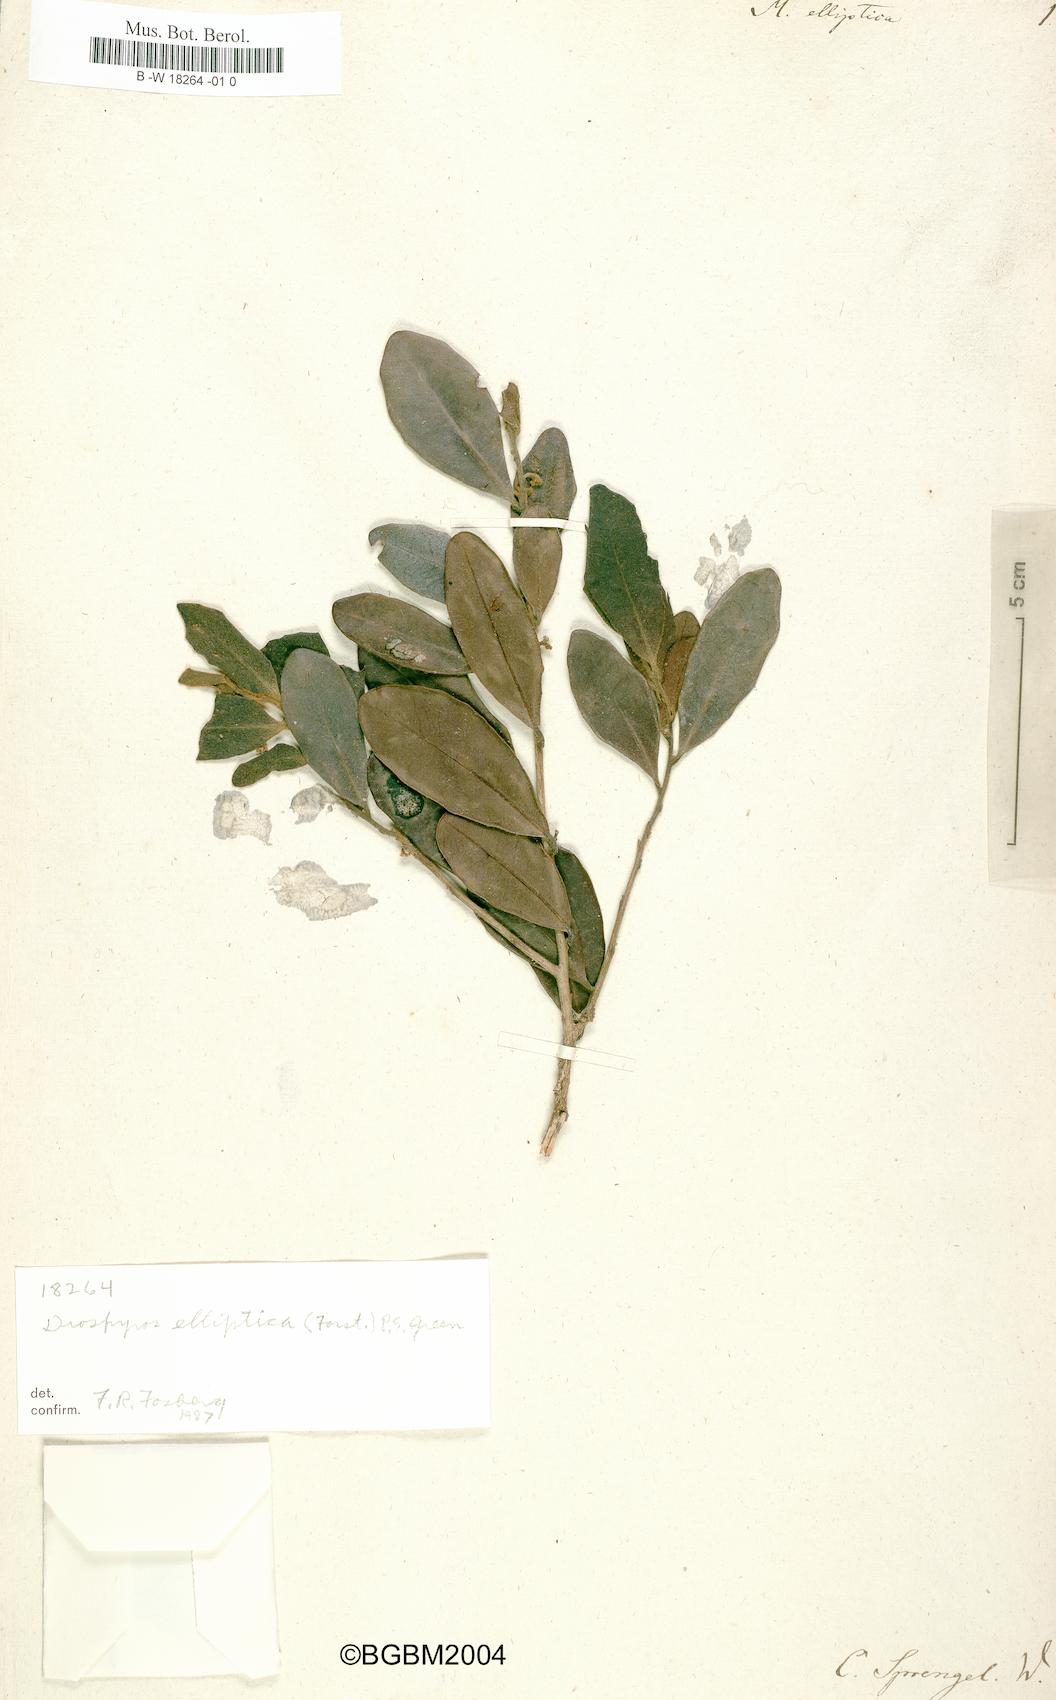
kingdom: Plantae
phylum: Tracheophyta
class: Magnoliopsida
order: Ericales
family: Ebenaceae
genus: Diospyros
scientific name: Diospyros foliosa
